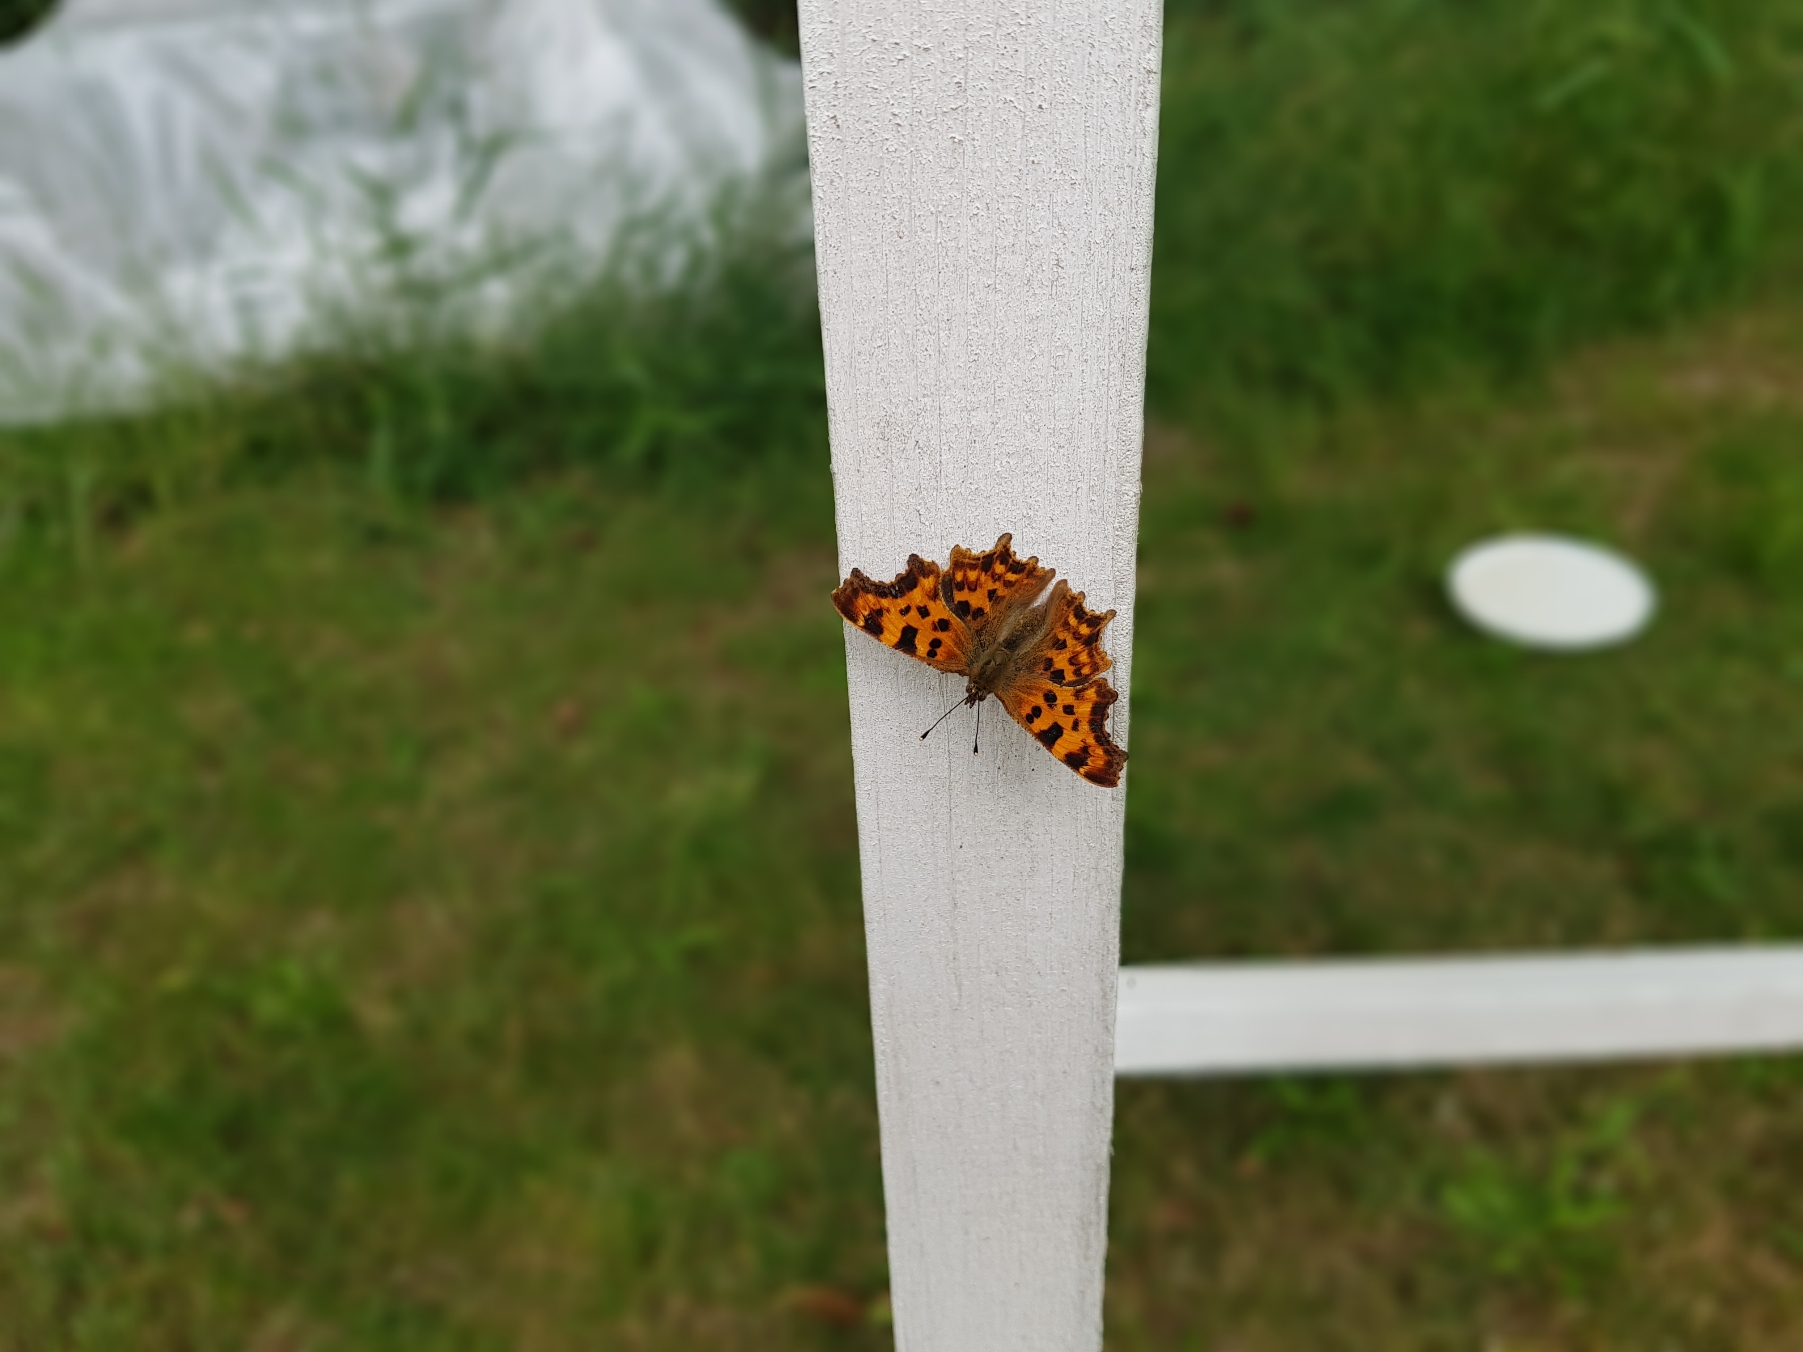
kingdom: Animalia
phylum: Arthropoda
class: Insecta
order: Lepidoptera
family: Nymphalidae
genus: Polygonia
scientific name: Polygonia c-album
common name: Det hvide C
